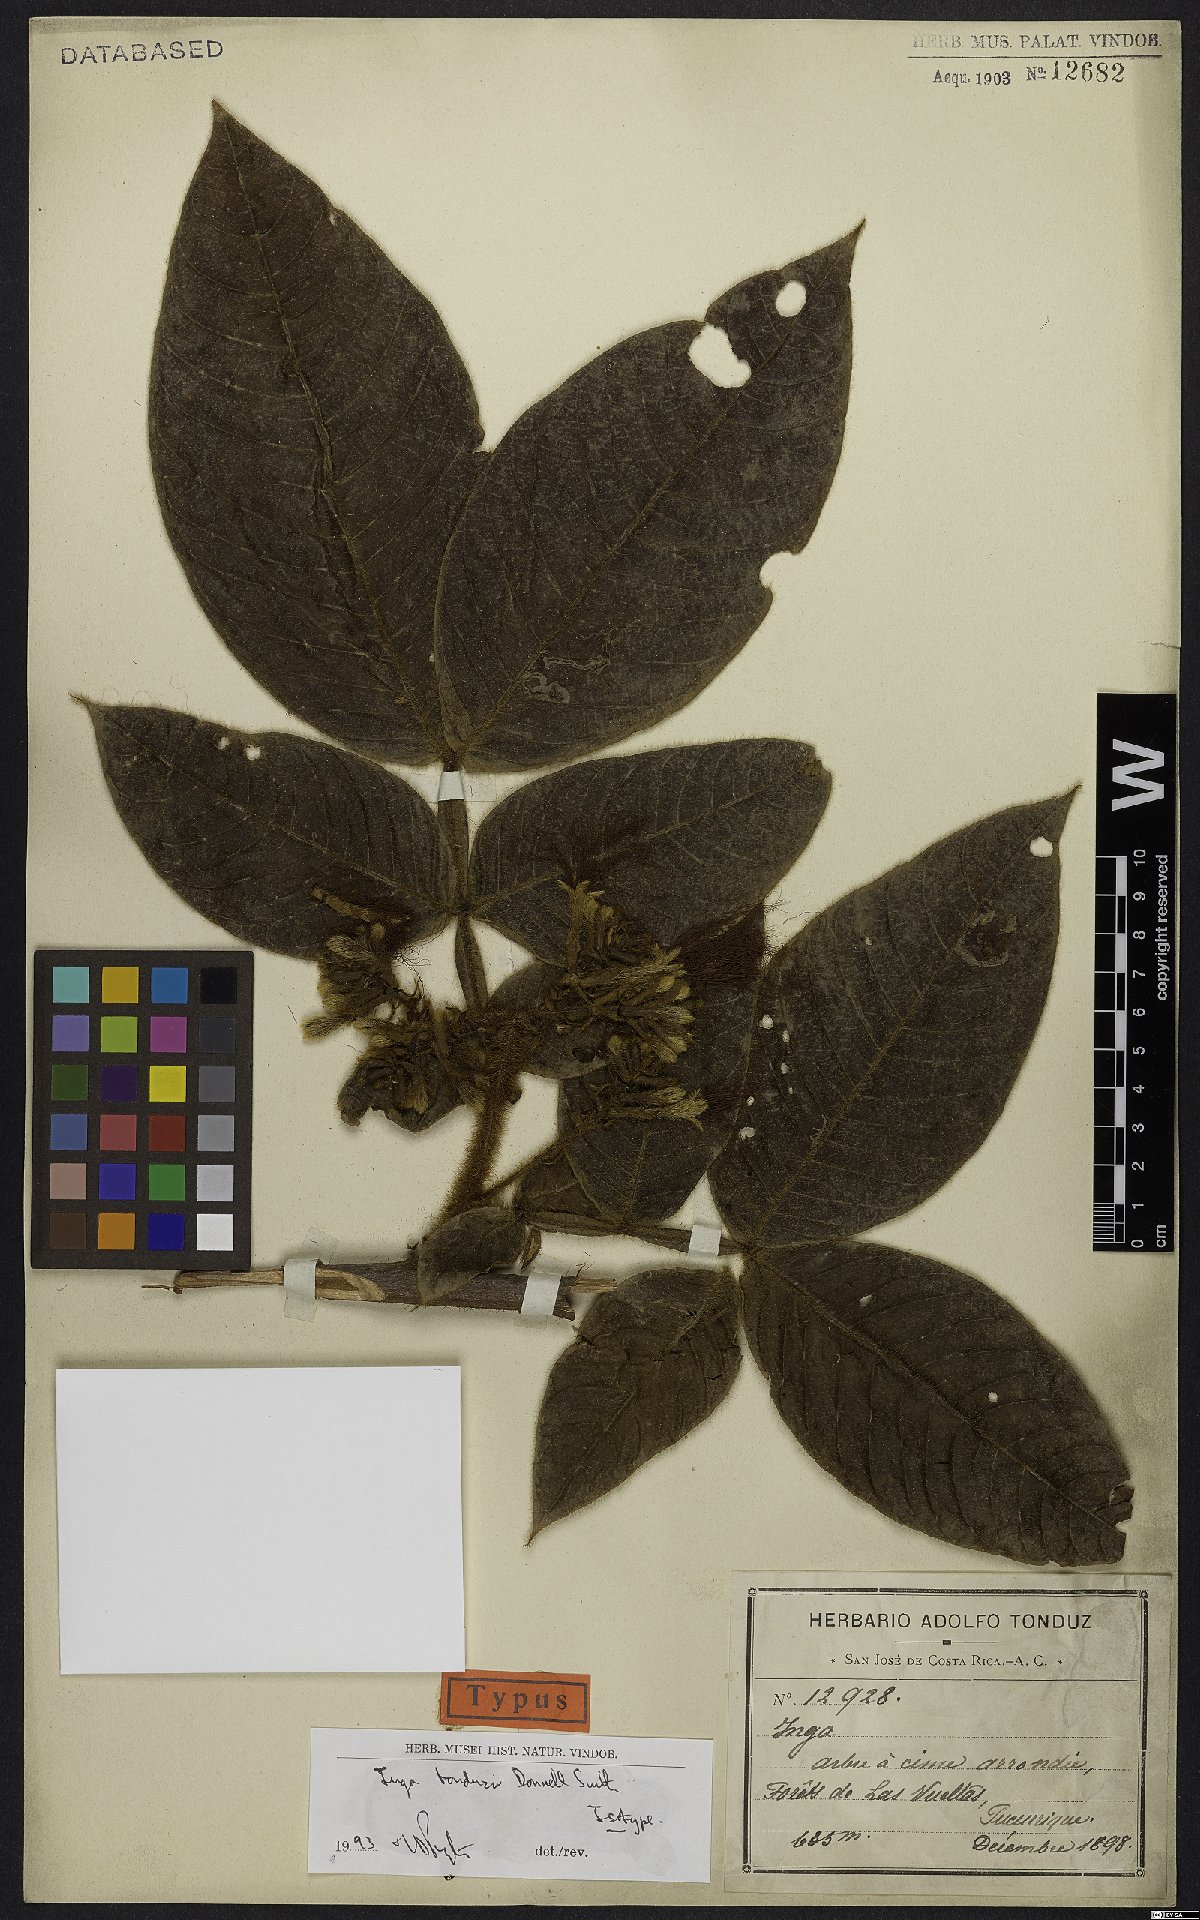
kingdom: Plantae
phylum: Tracheophyta
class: Magnoliopsida
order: Fabales
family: Fabaceae
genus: Inga
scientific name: Inga tonduzii
